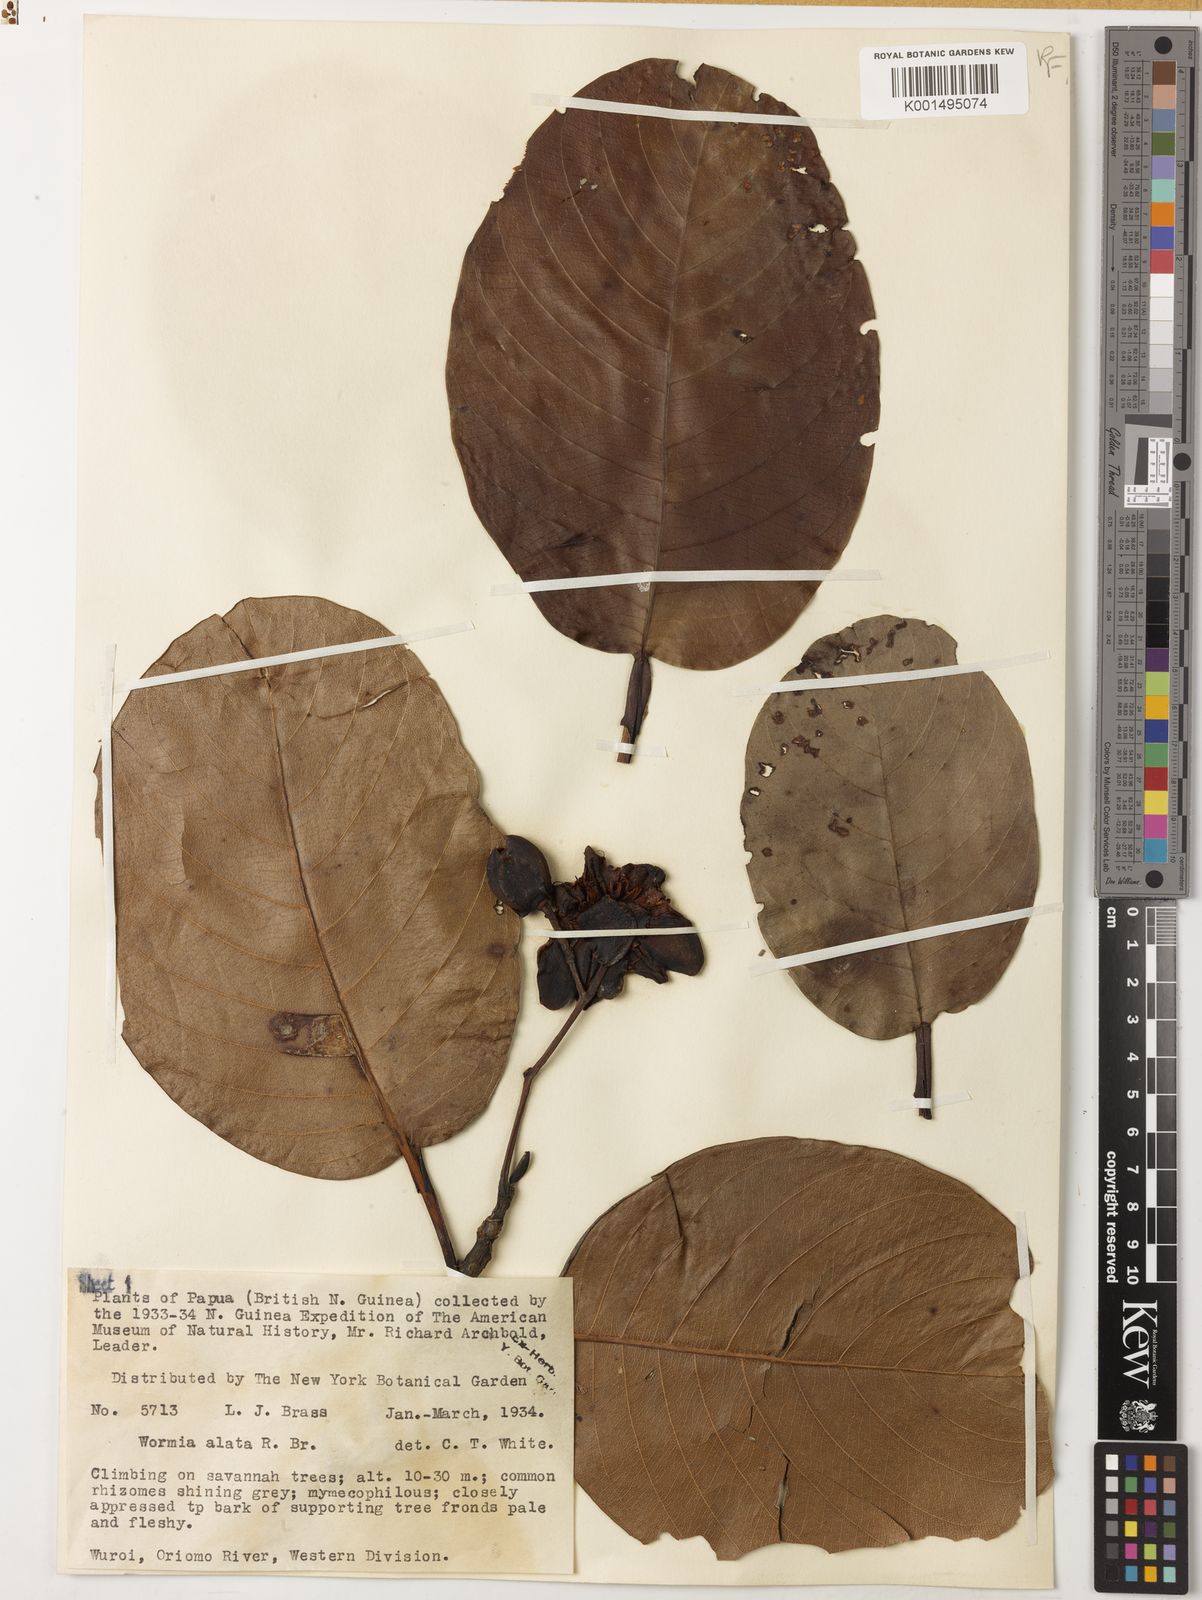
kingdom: Plantae
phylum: Tracheophyta
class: Magnoliopsida
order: Dilleniales
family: Dilleniaceae
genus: Dillenia
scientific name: Dillenia alata
